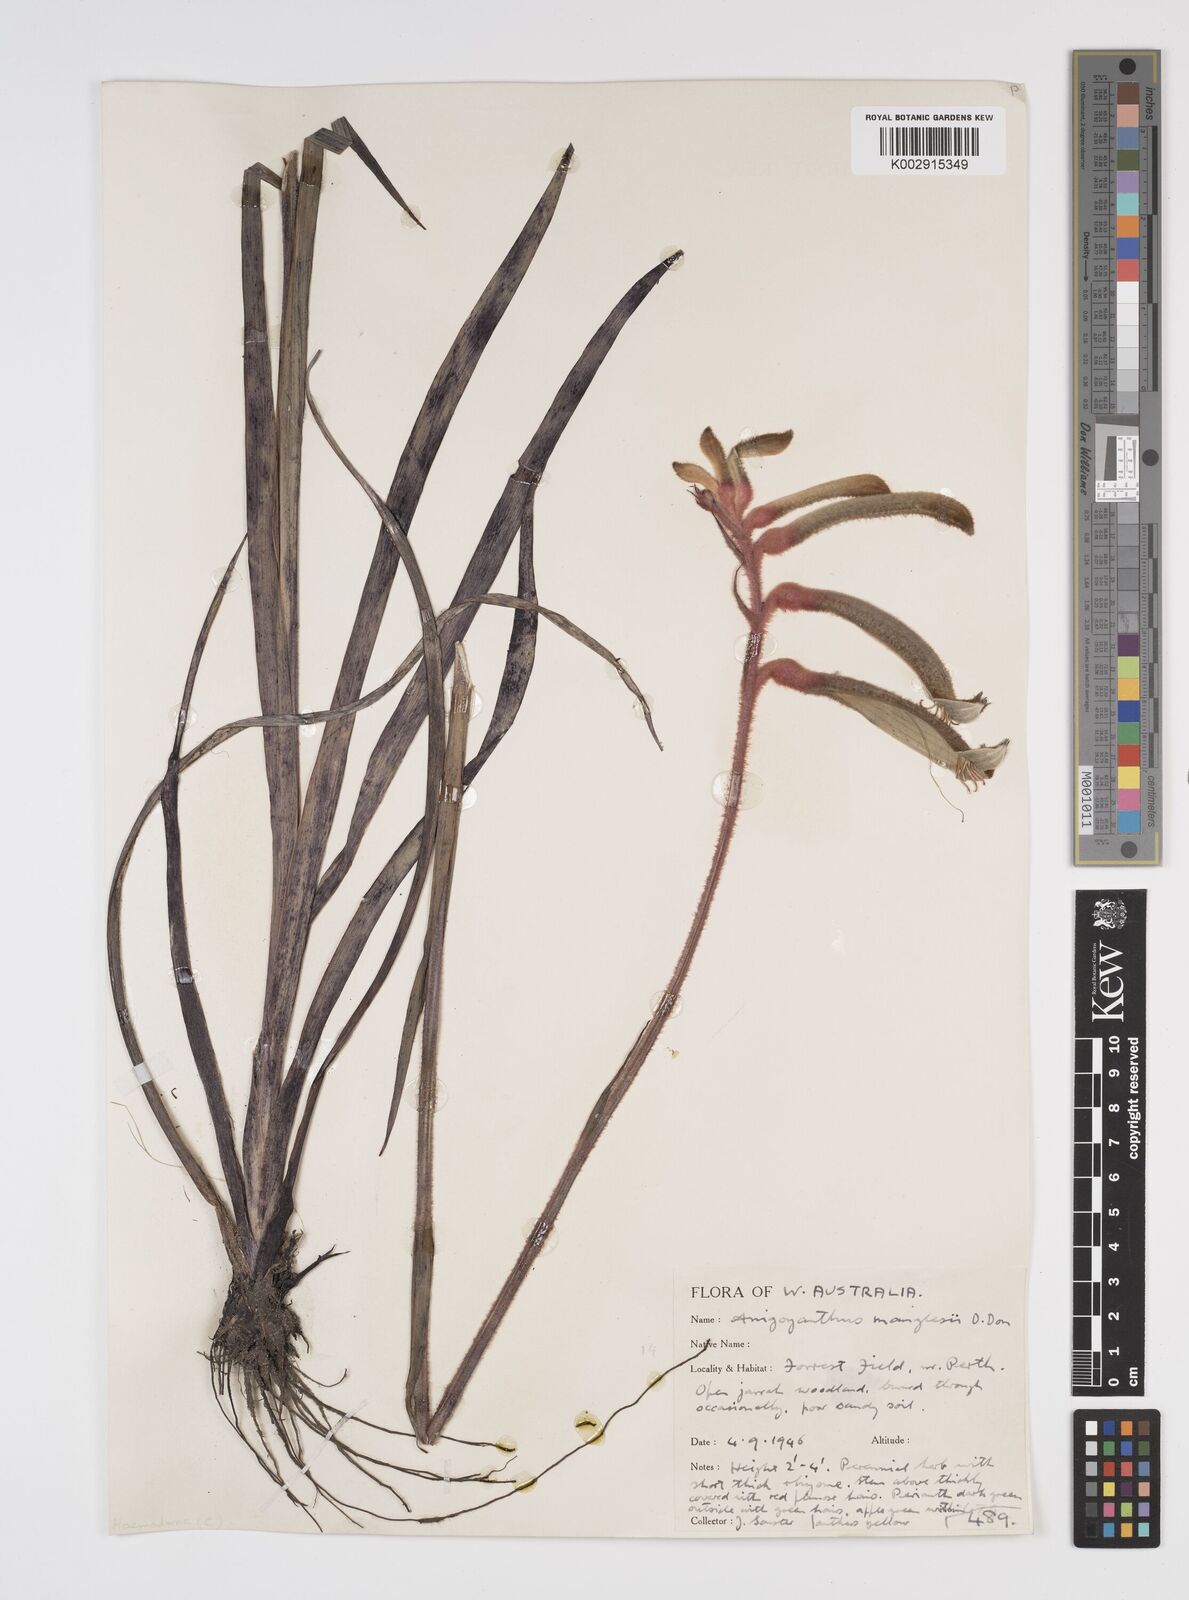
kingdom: Plantae
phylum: Tracheophyta
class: Liliopsida
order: Commelinales
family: Haemodoraceae
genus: Anigozanthos
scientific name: Anigozanthos manglesii
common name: Mangles's kangaroo-paw
